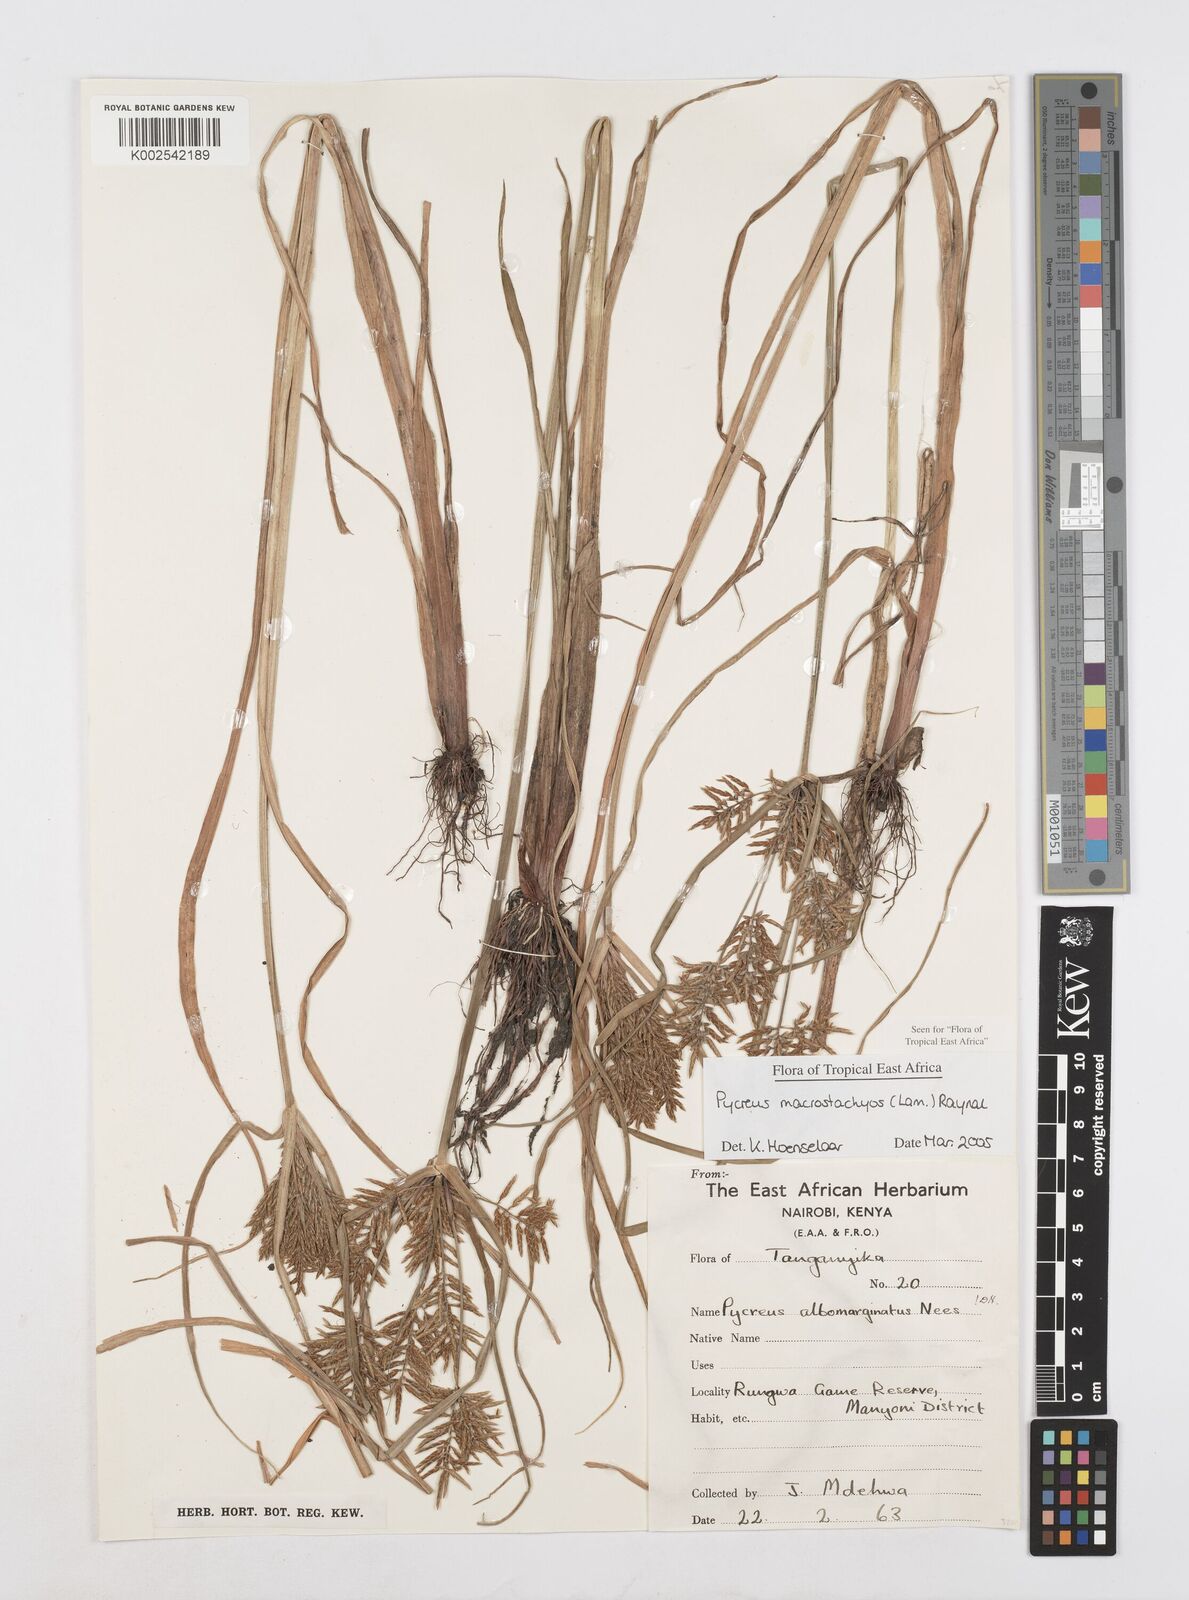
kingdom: Plantae
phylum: Tracheophyta
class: Liliopsida
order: Poales
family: Cyperaceae
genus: Cyperus
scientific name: Cyperus macrostachyos
